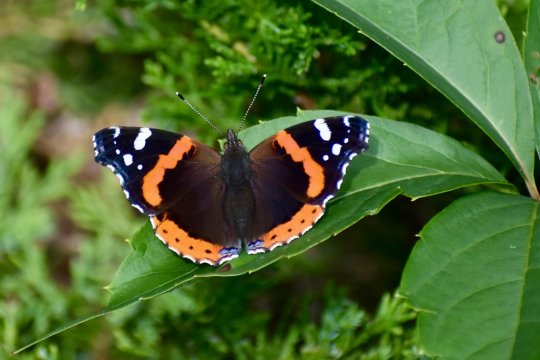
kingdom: Animalia
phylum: Arthropoda
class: Insecta
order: Lepidoptera
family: Nymphalidae
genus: Vanessa
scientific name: Vanessa atalanta
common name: Red Admiral
